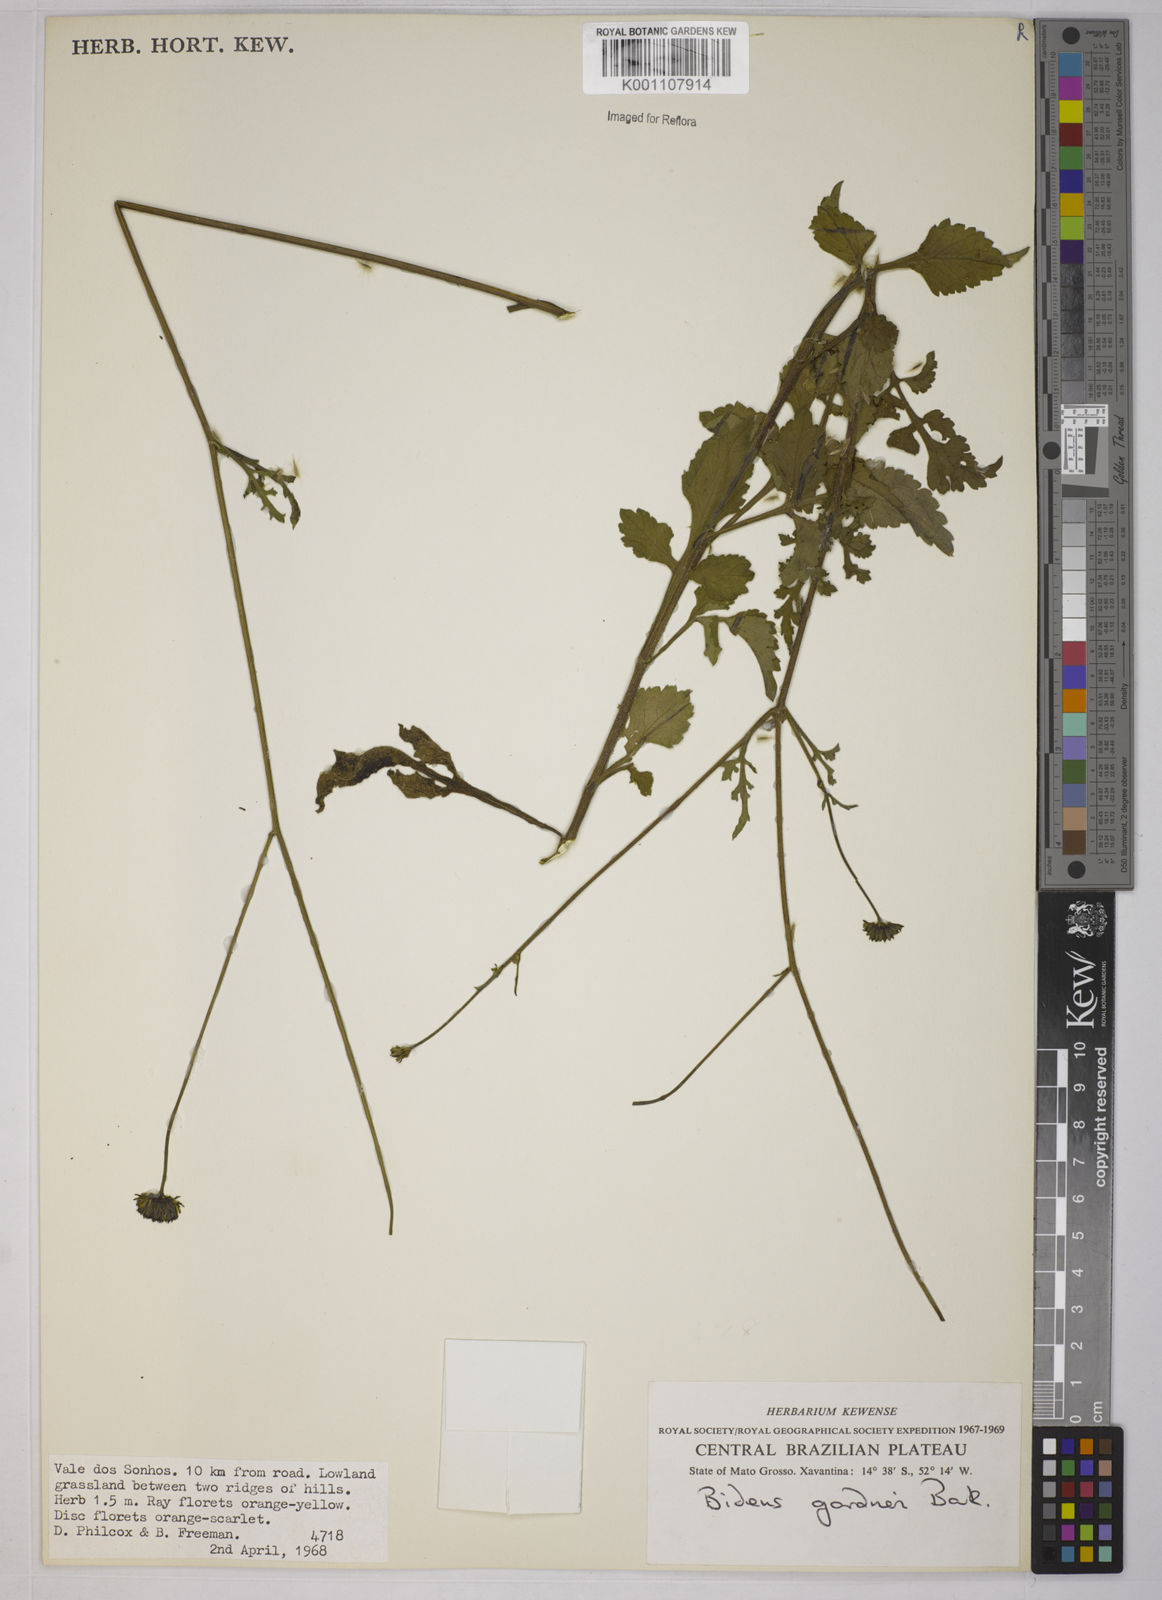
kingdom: Plantae
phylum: Tracheophyta
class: Magnoliopsida
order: Asterales
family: Asteraceae
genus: Bidens
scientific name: Bidens gardneri
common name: Ridge beggartick
